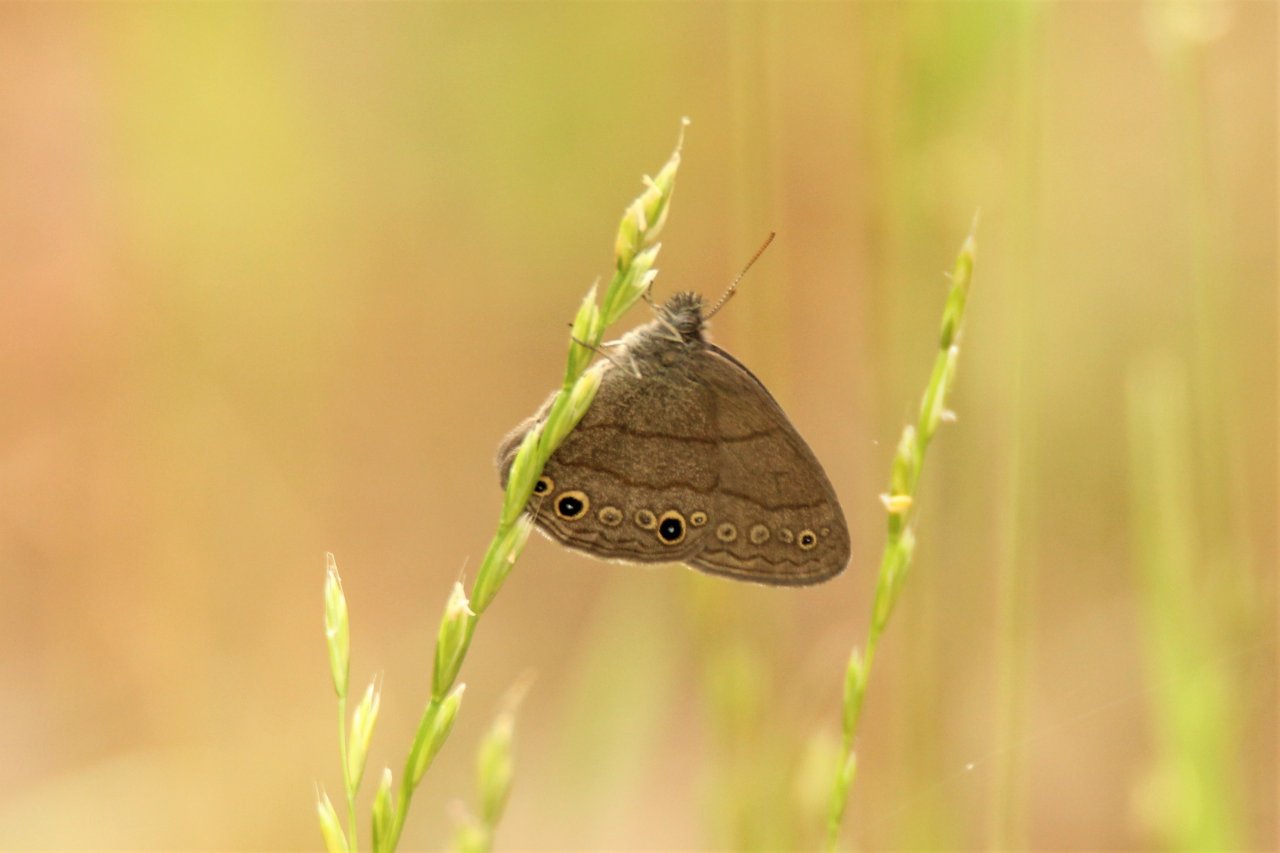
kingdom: Animalia
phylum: Arthropoda
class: Insecta
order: Lepidoptera
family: Nymphalidae
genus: Hermeuptychia
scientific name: Hermeuptychia hermes
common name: Carolina Satyr
